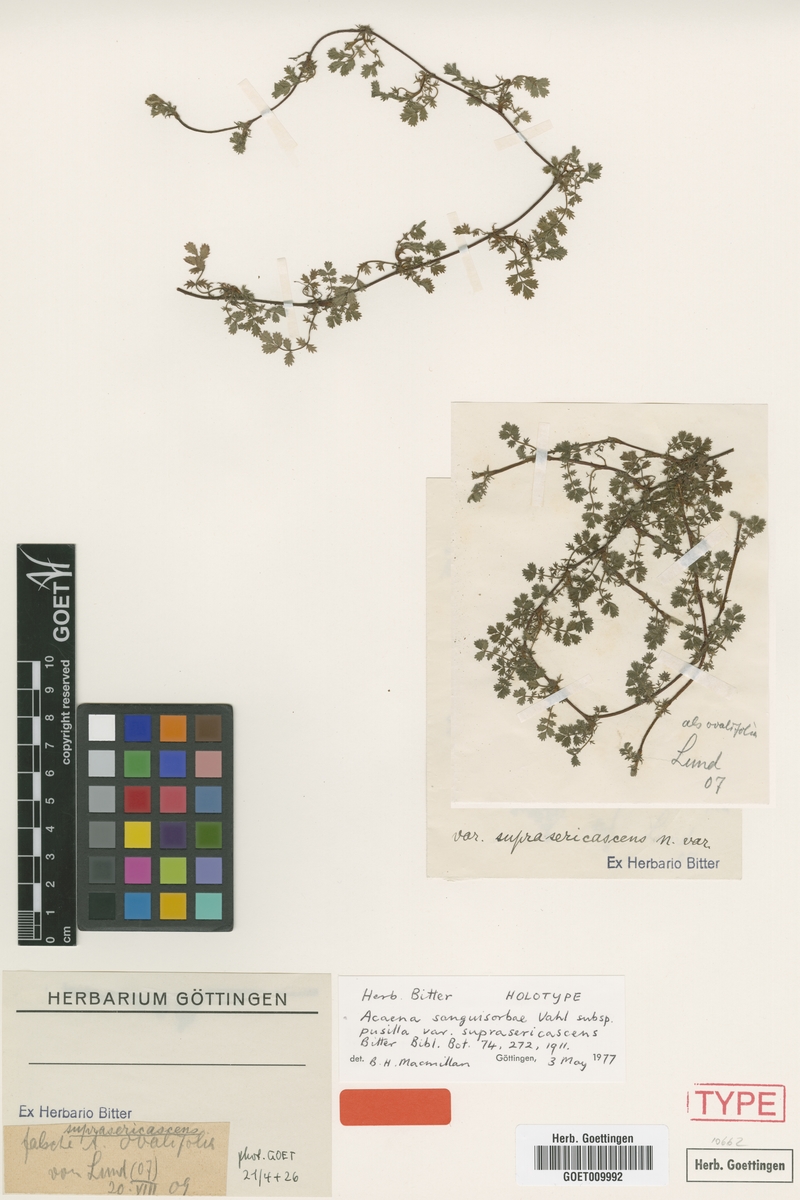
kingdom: Plantae
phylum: Tracheophyta
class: Magnoliopsida
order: Rosales
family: Rosaceae
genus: Acaena
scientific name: Acaena anserinifolia
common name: Bronze pirri-pirri-bur
